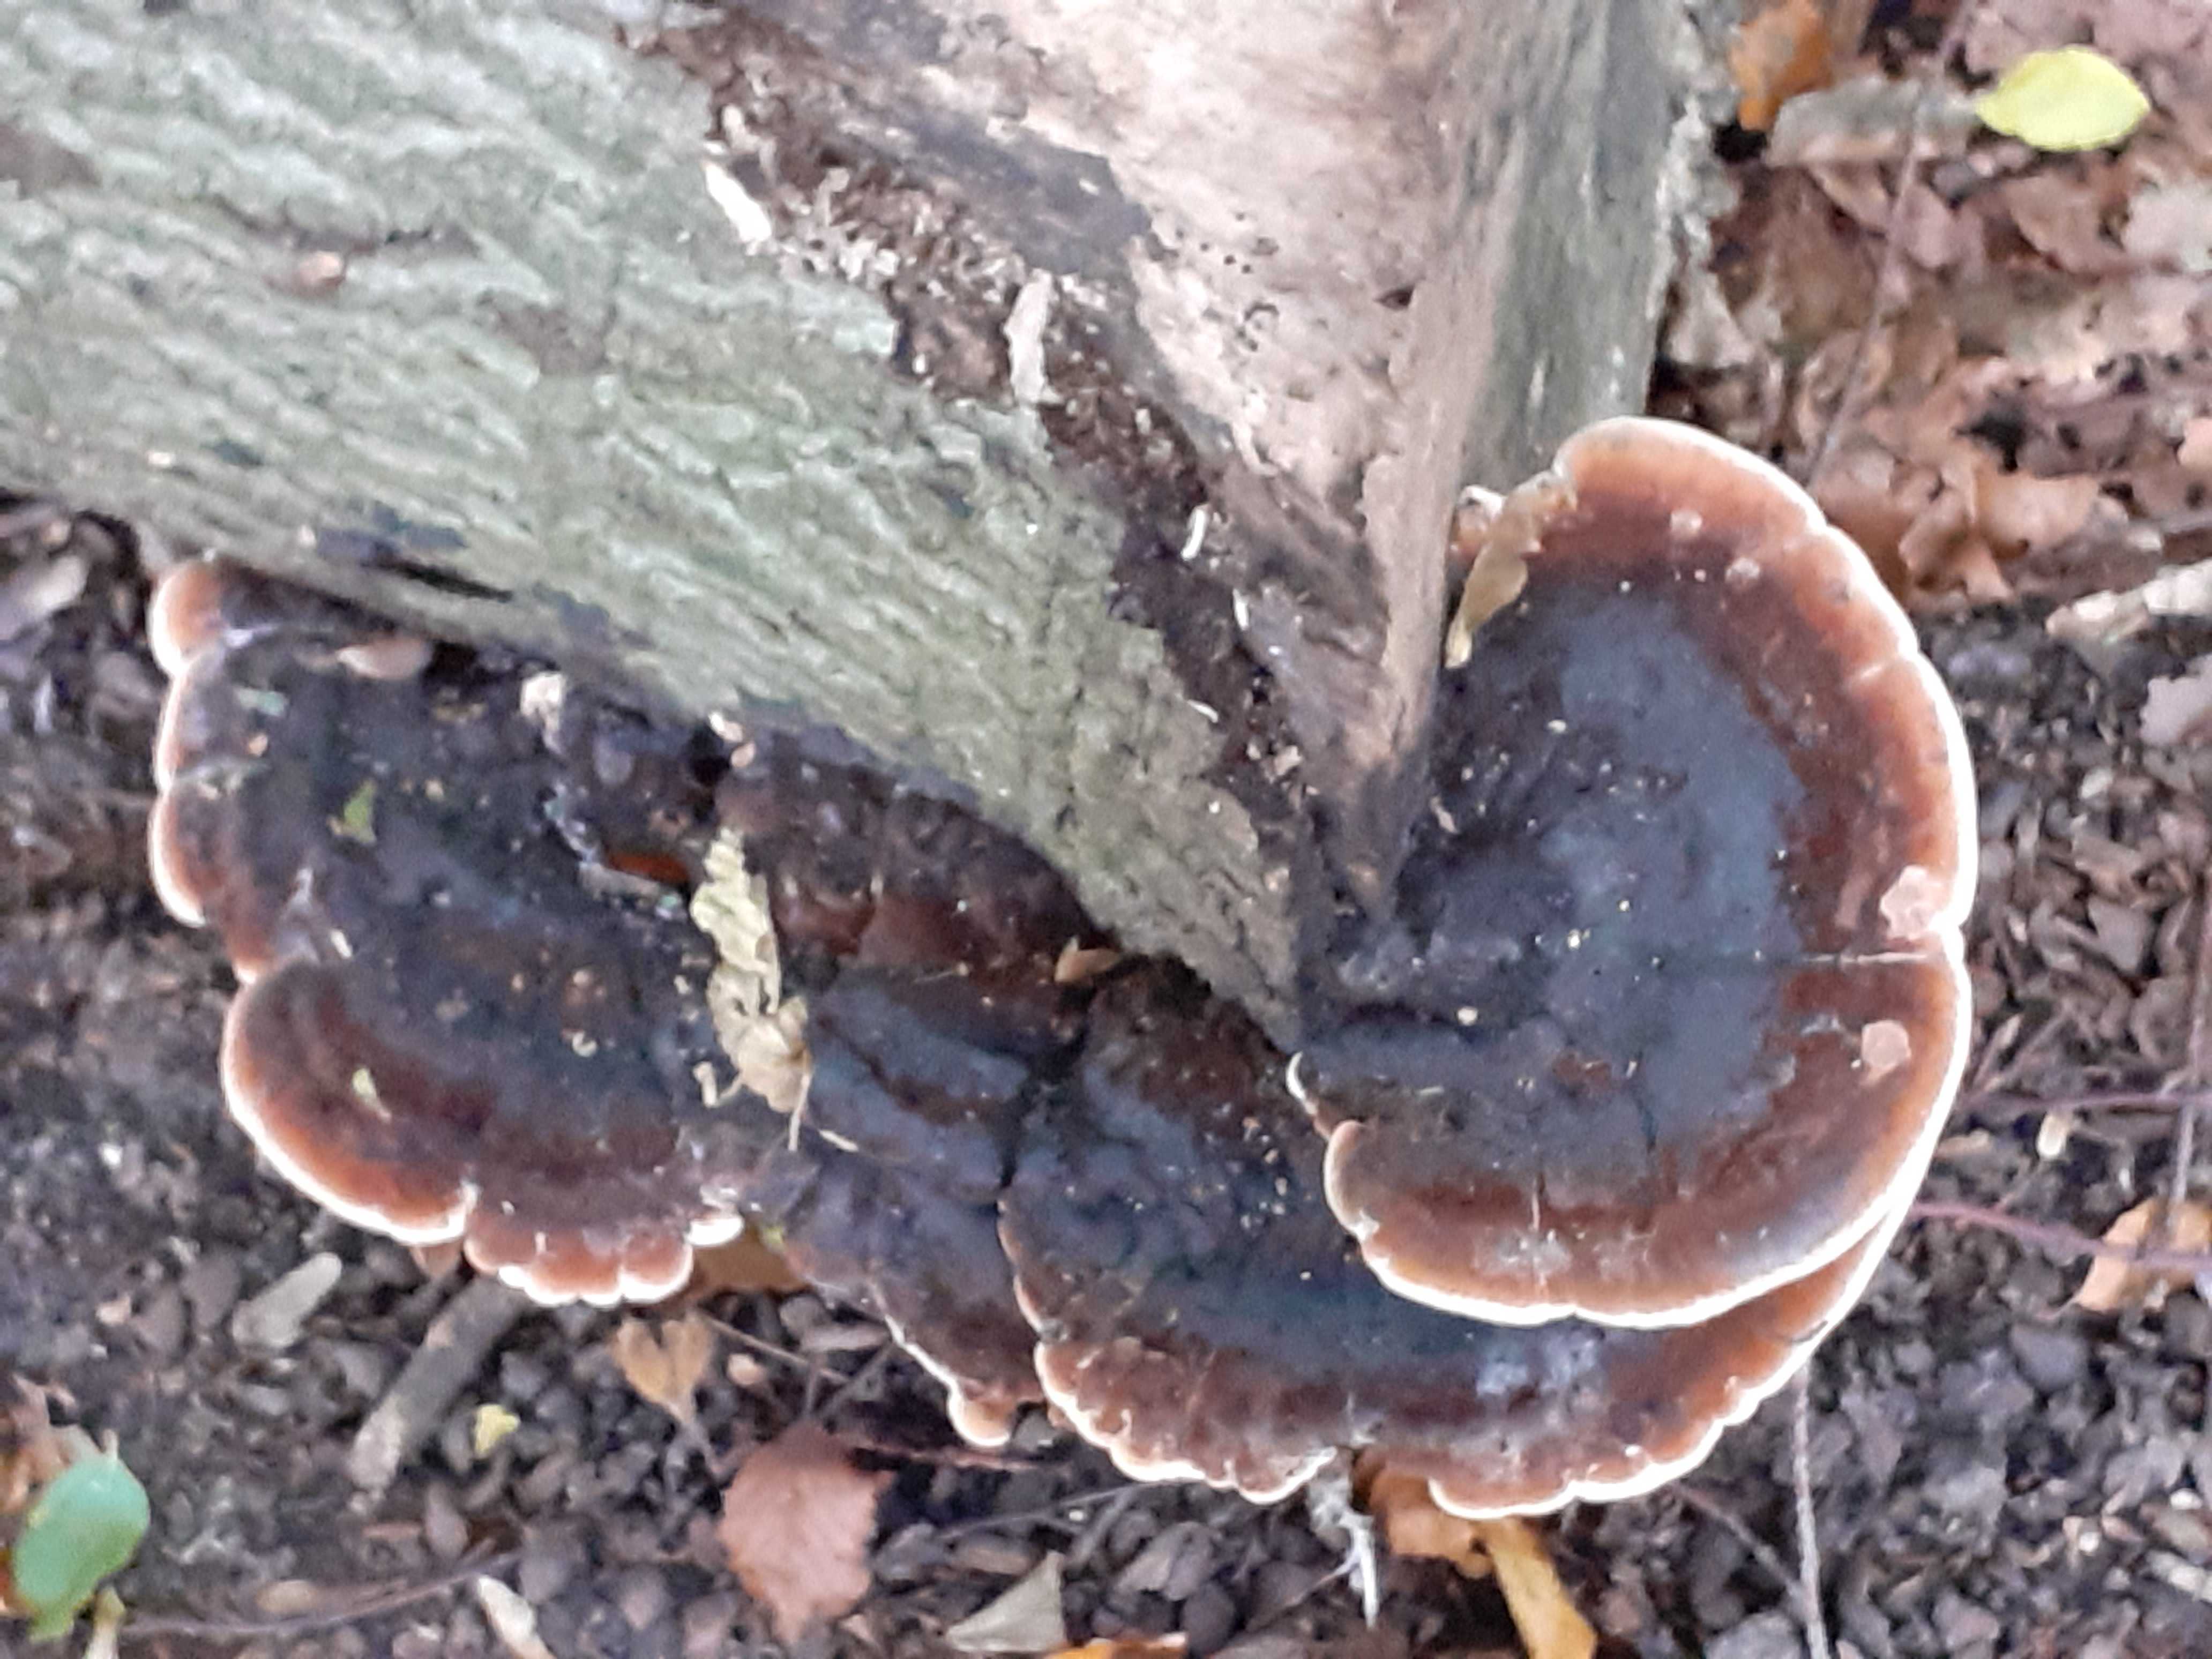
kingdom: Fungi
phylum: Basidiomycota
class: Agaricomycetes
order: Polyporales
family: Ischnodermataceae
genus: Ischnoderma
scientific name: Ischnoderma resinosum
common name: løv-tjæreporesvamp
